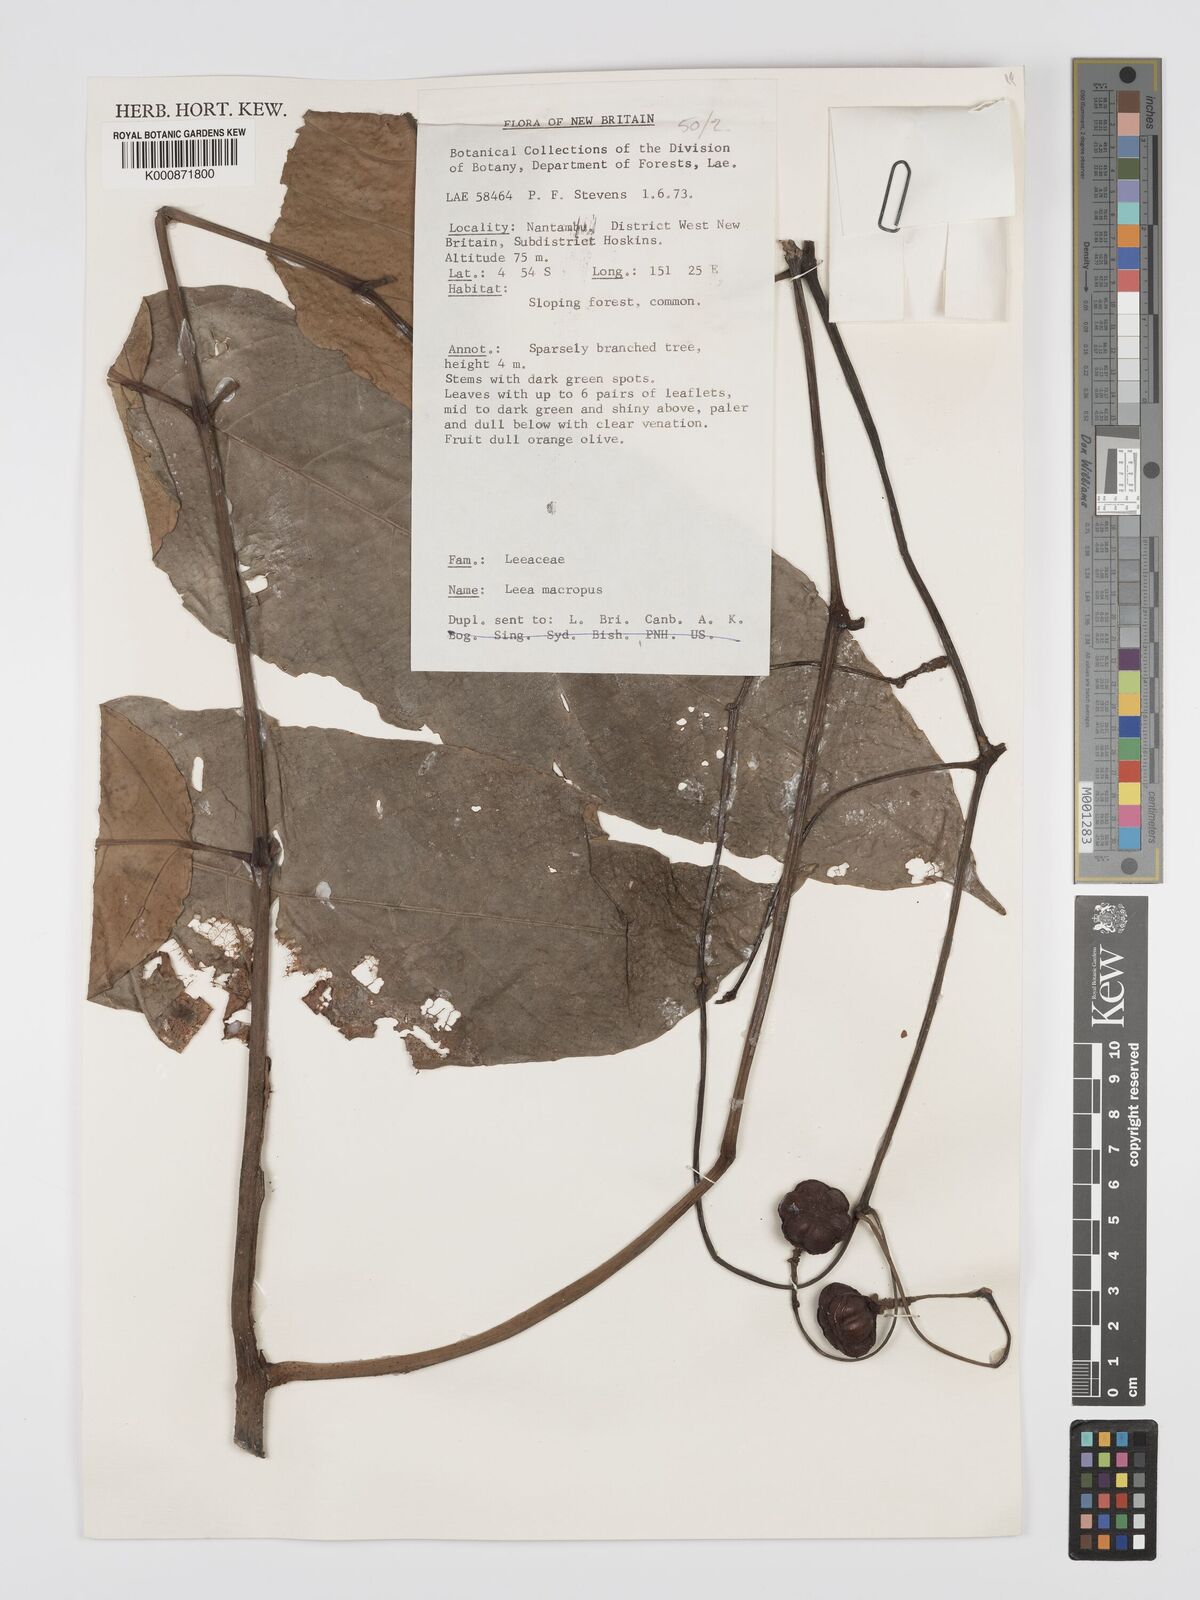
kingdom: Plantae
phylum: Tracheophyta
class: Magnoliopsida
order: Vitales
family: Vitaceae
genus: Leea
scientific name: Leea macropus
